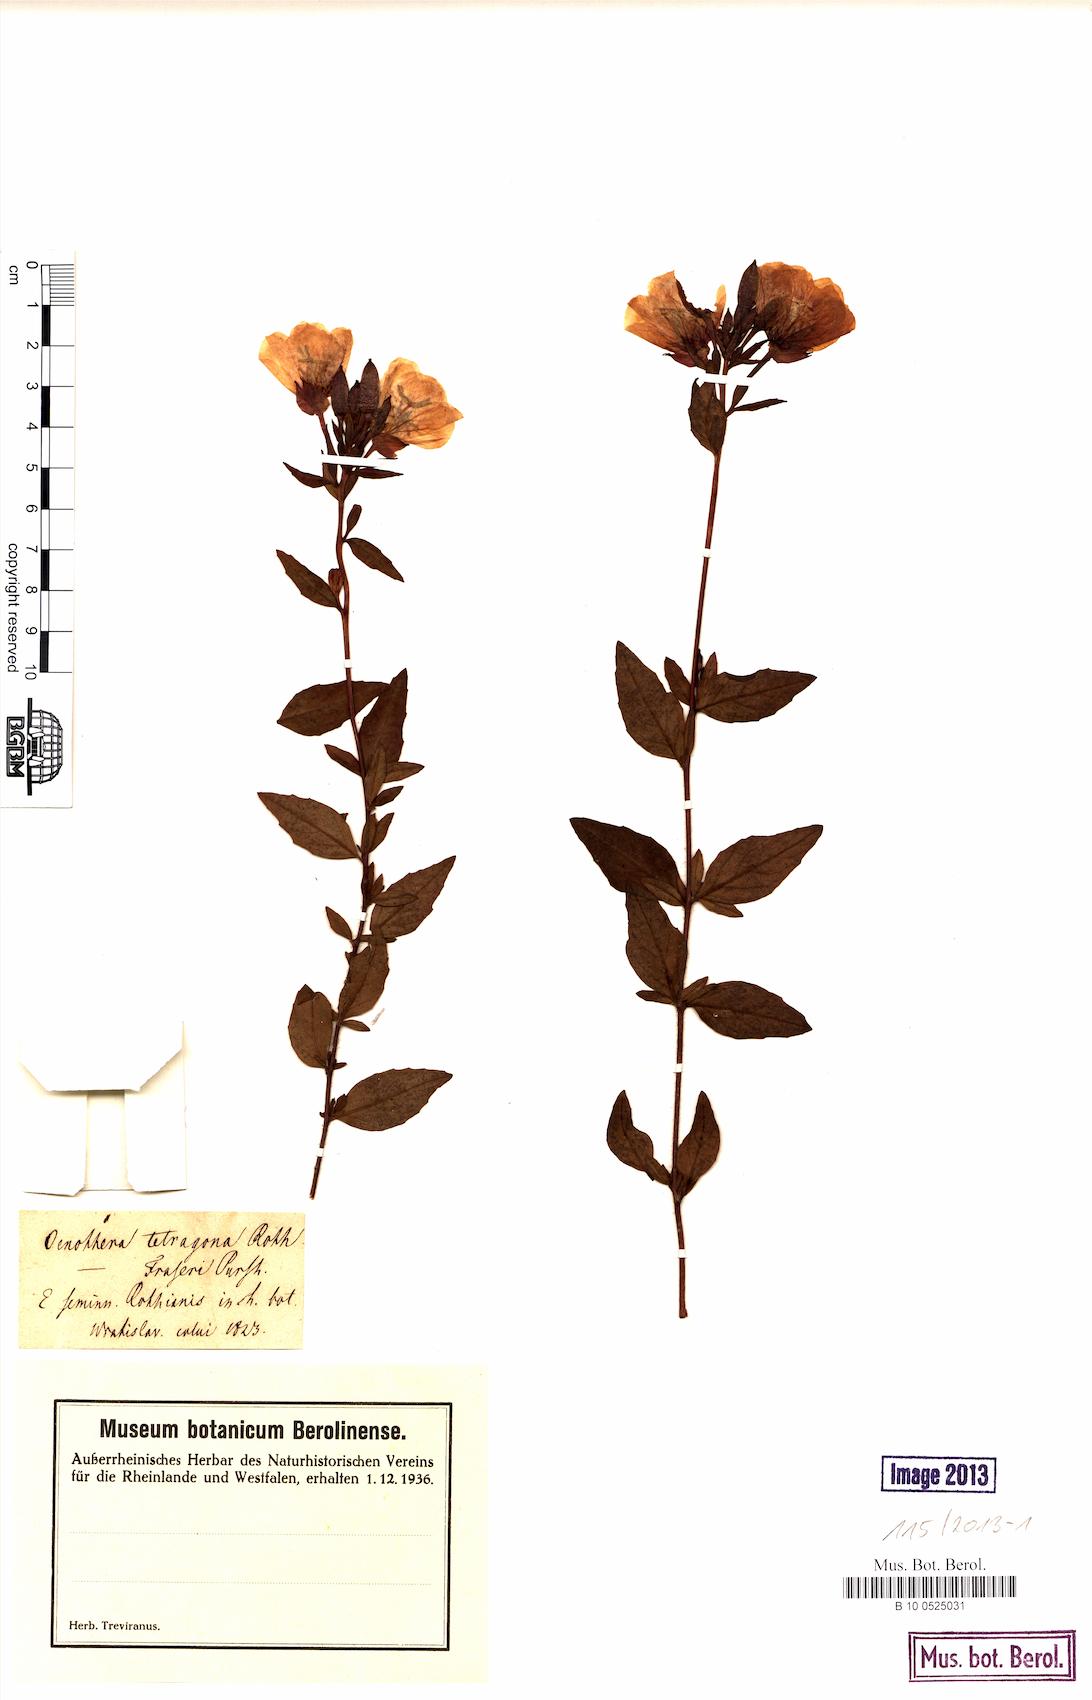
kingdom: Plantae
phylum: Tracheophyta
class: Magnoliopsida
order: Myrtales
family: Onagraceae
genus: Oenothera
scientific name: Oenothera tetragona
